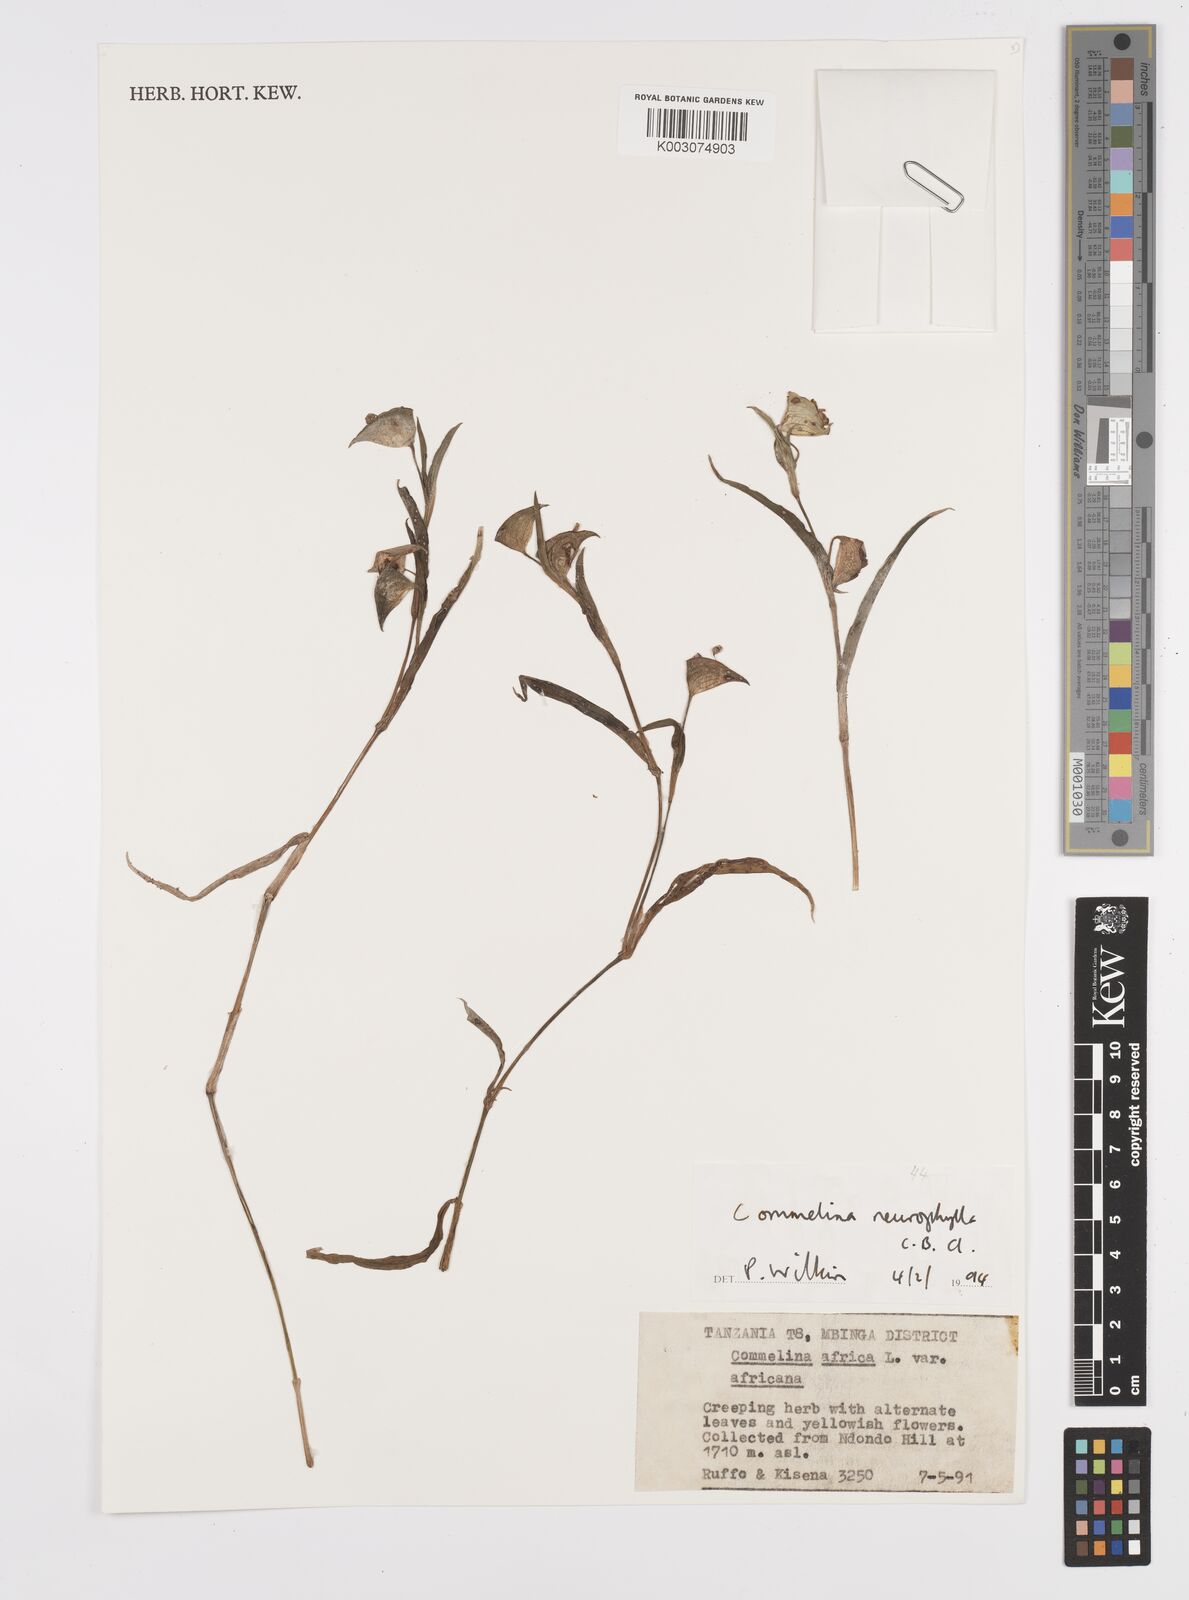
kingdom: Plantae
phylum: Tracheophyta
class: Liliopsida
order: Commelinales
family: Commelinaceae
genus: Commelina
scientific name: Commelina neurophylla
